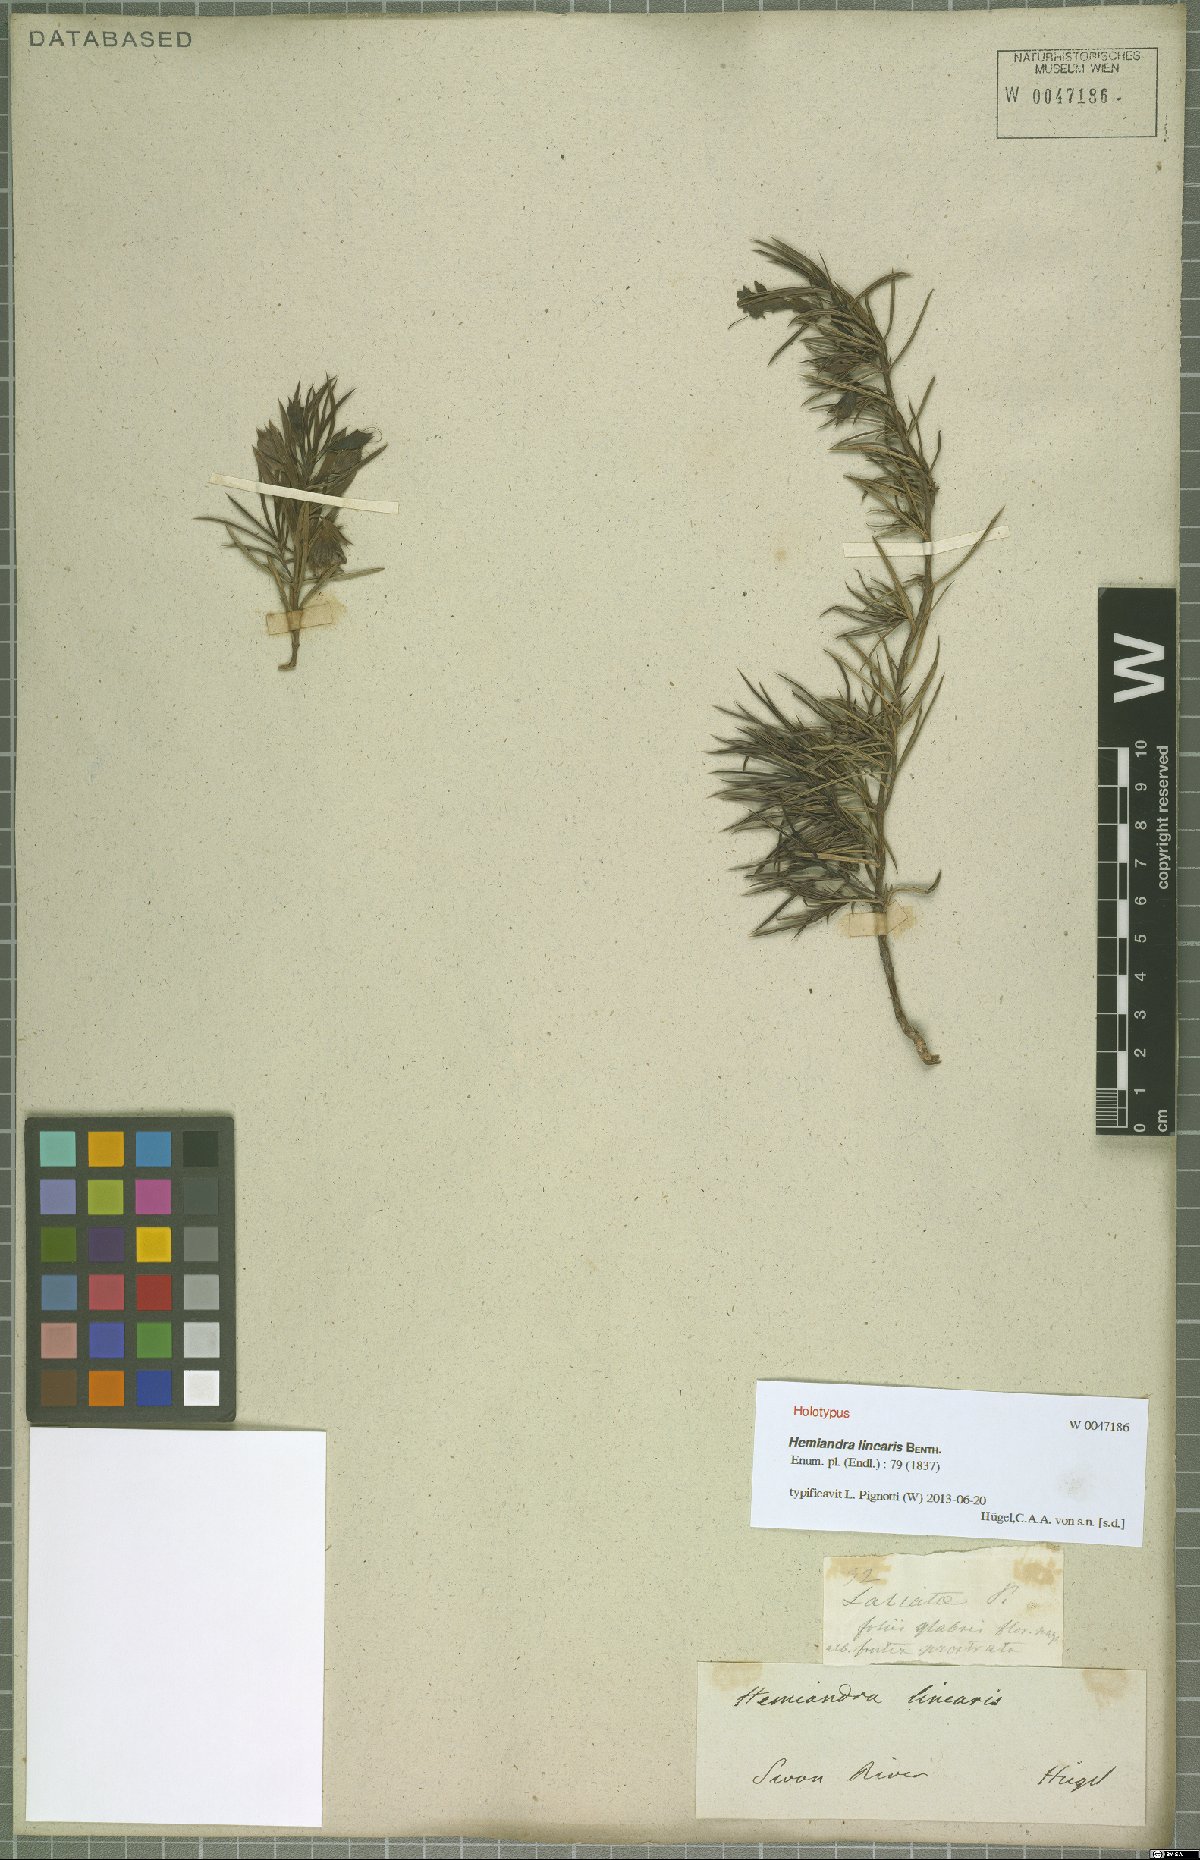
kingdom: Plantae
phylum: Tracheophyta
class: Magnoliopsida
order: Lamiales
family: Lamiaceae
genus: Hemiandra
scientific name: Hemiandra pungens
